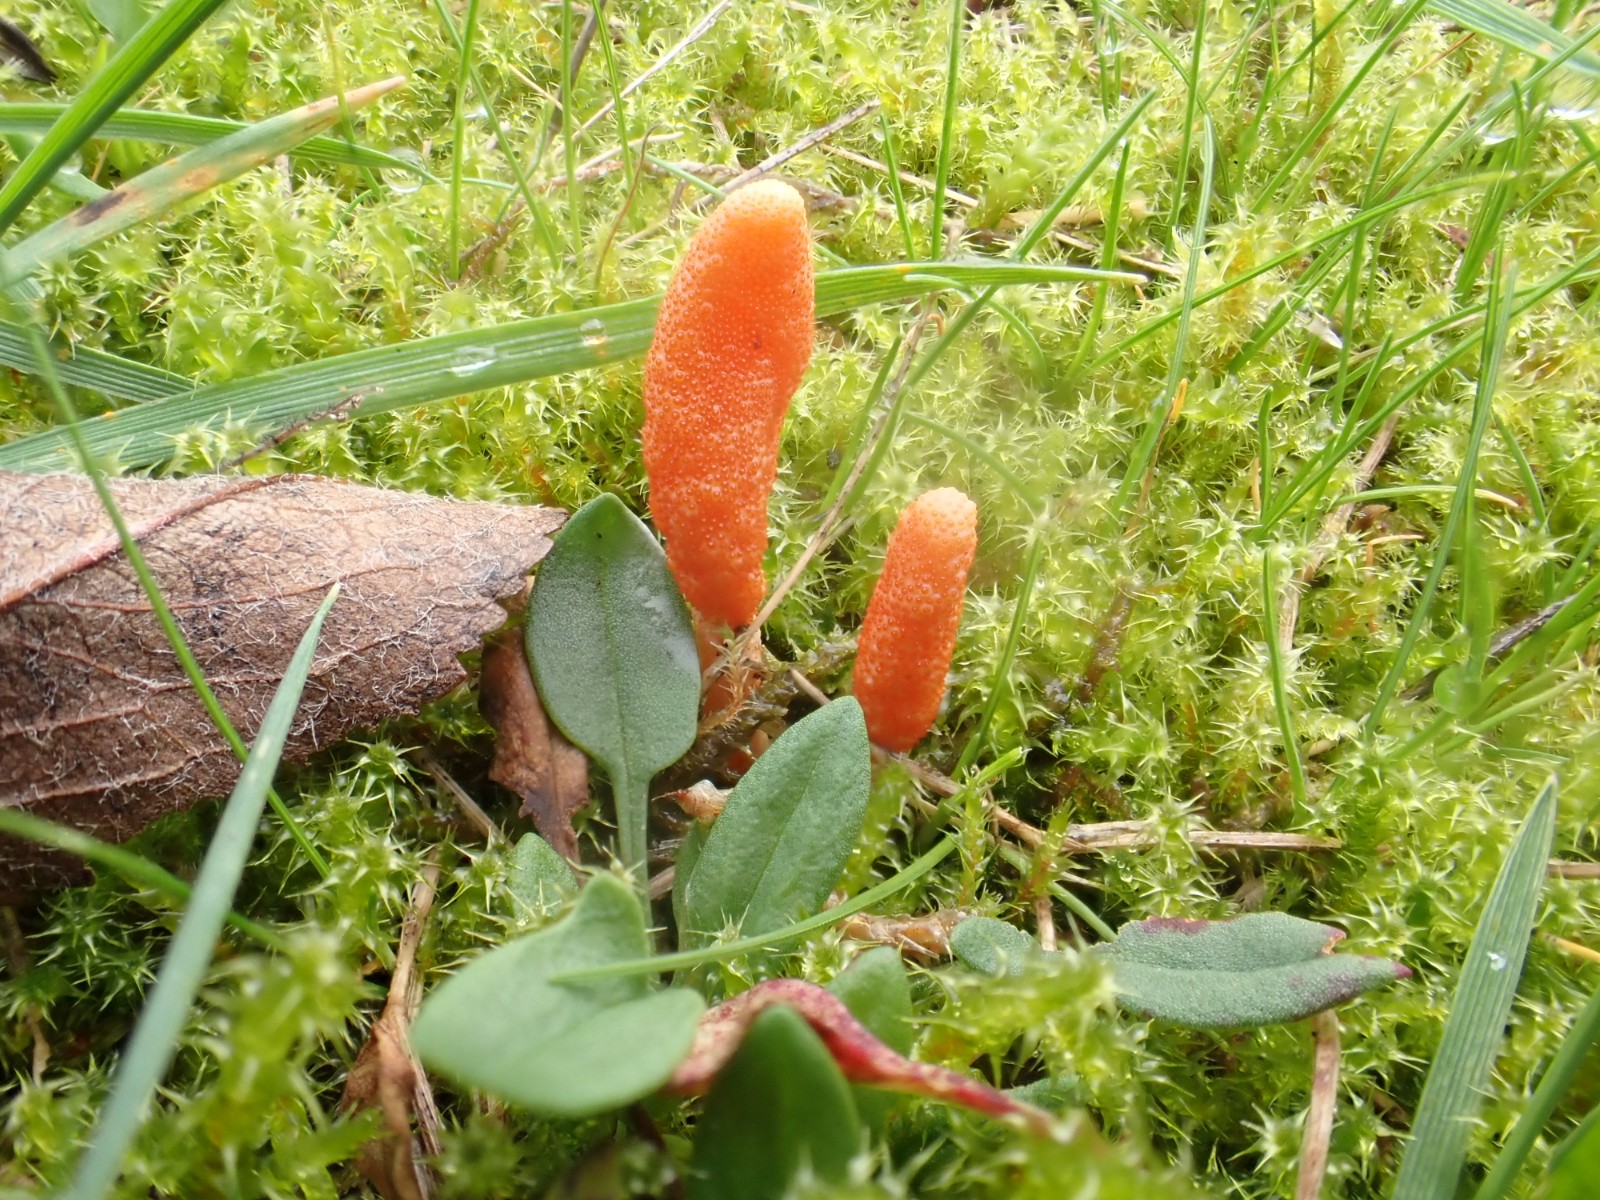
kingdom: Fungi
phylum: Ascomycota
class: Sordariomycetes
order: Hypocreales
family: Cordycipitaceae
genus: Cordyceps
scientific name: Cordyceps militaris
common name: puppe-snyltekølle
